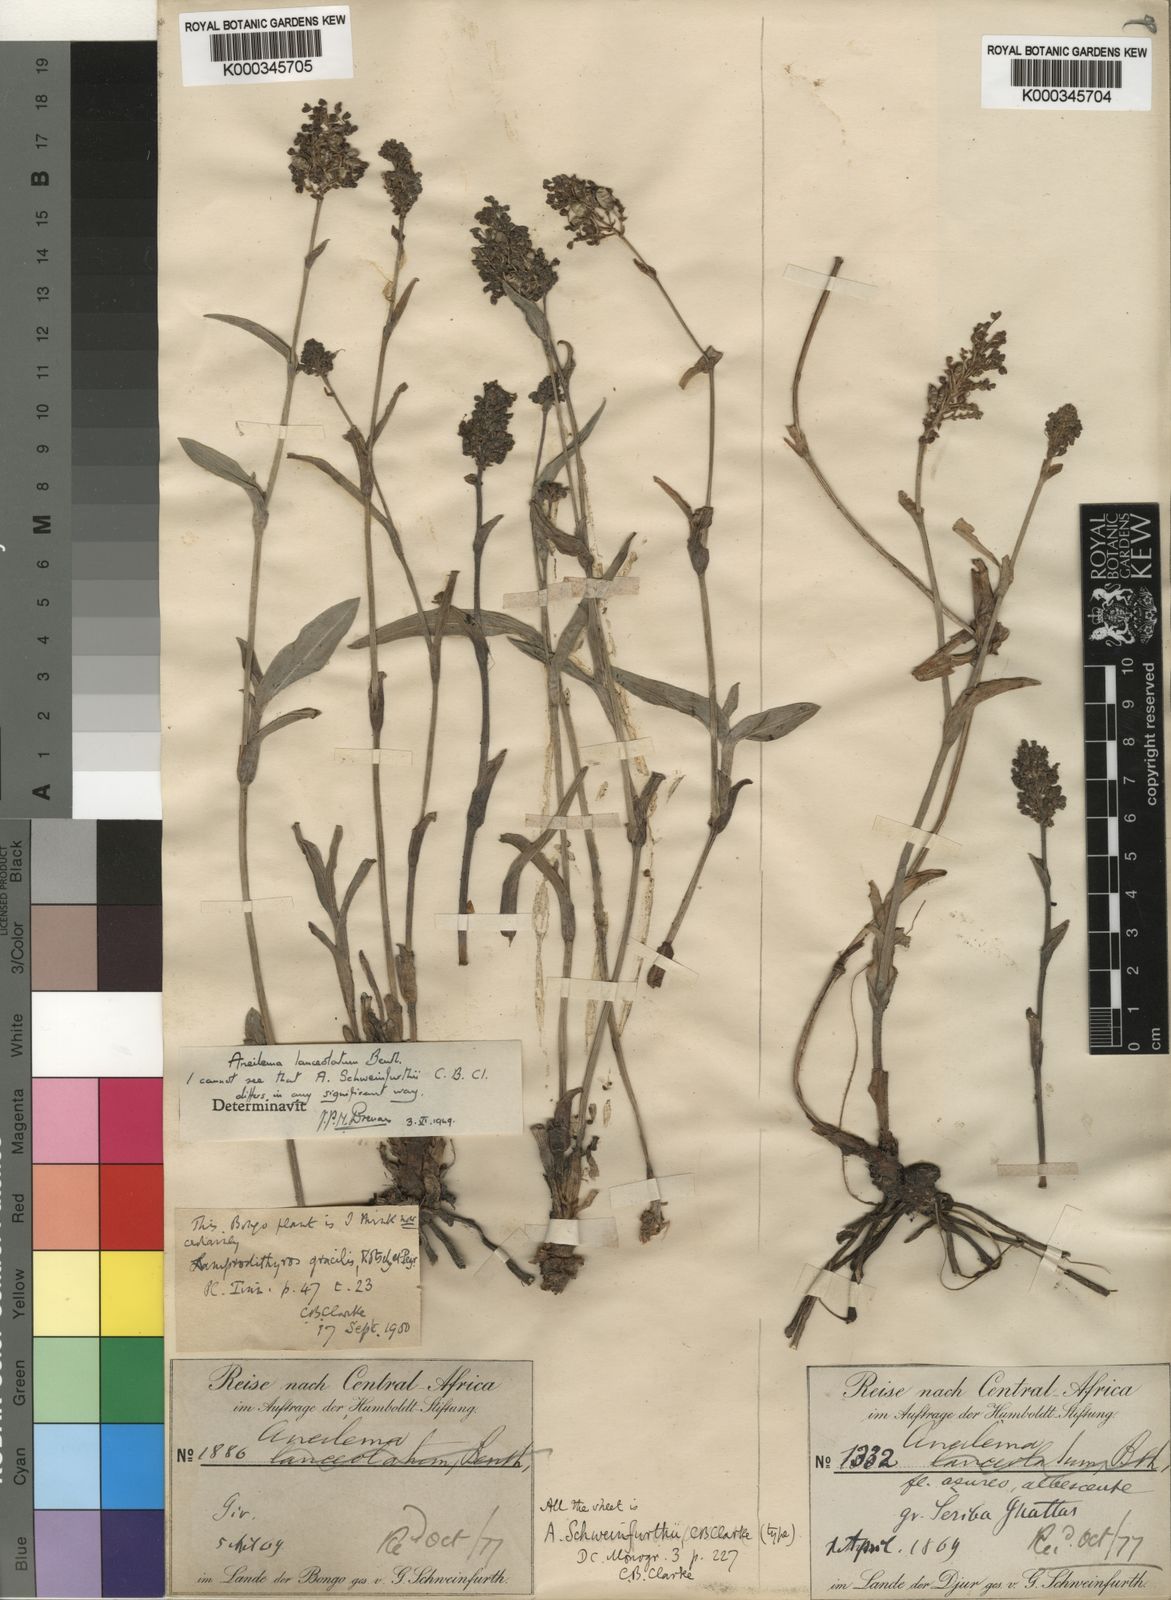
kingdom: Plantae
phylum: Tracheophyta
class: Liliopsida
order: Commelinales
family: Commelinaceae
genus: Aneilema
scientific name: Aneilema lanceolatum
